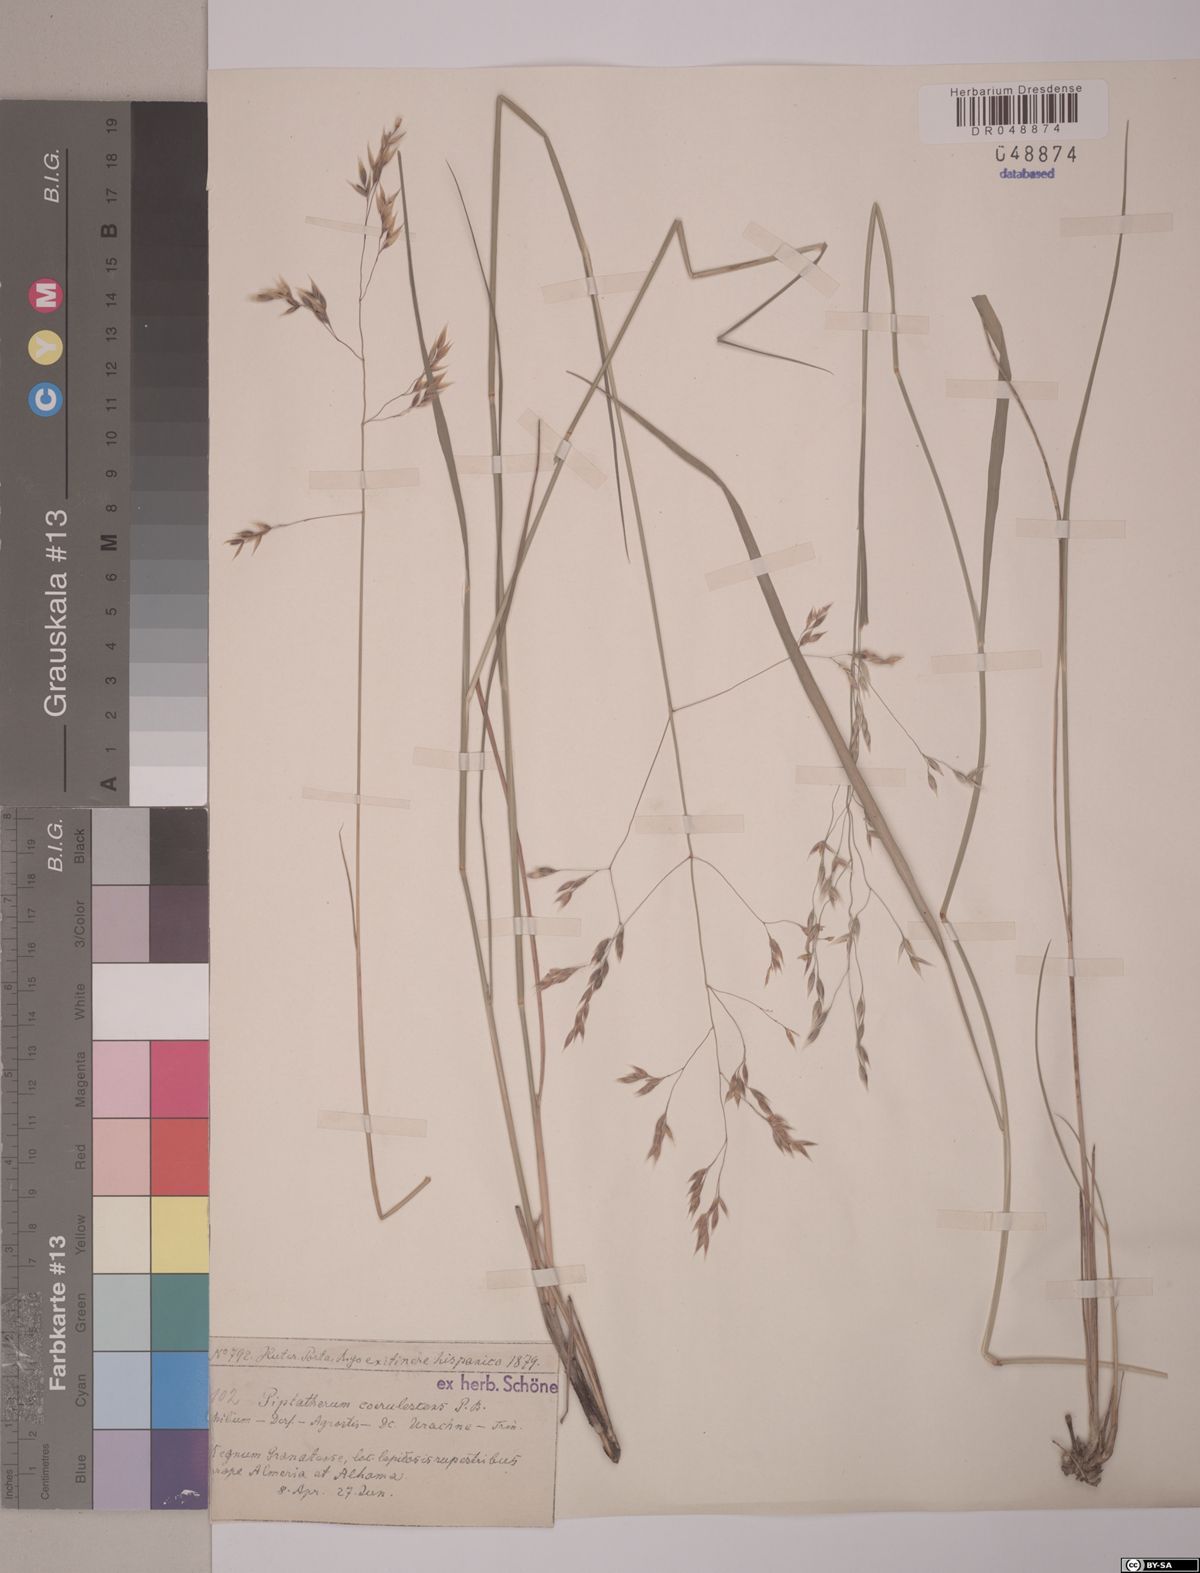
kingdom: Plantae
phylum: Tracheophyta
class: Liliopsida
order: Poales
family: Poaceae
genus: Piptatherum
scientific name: Piptatherum coerulescens
